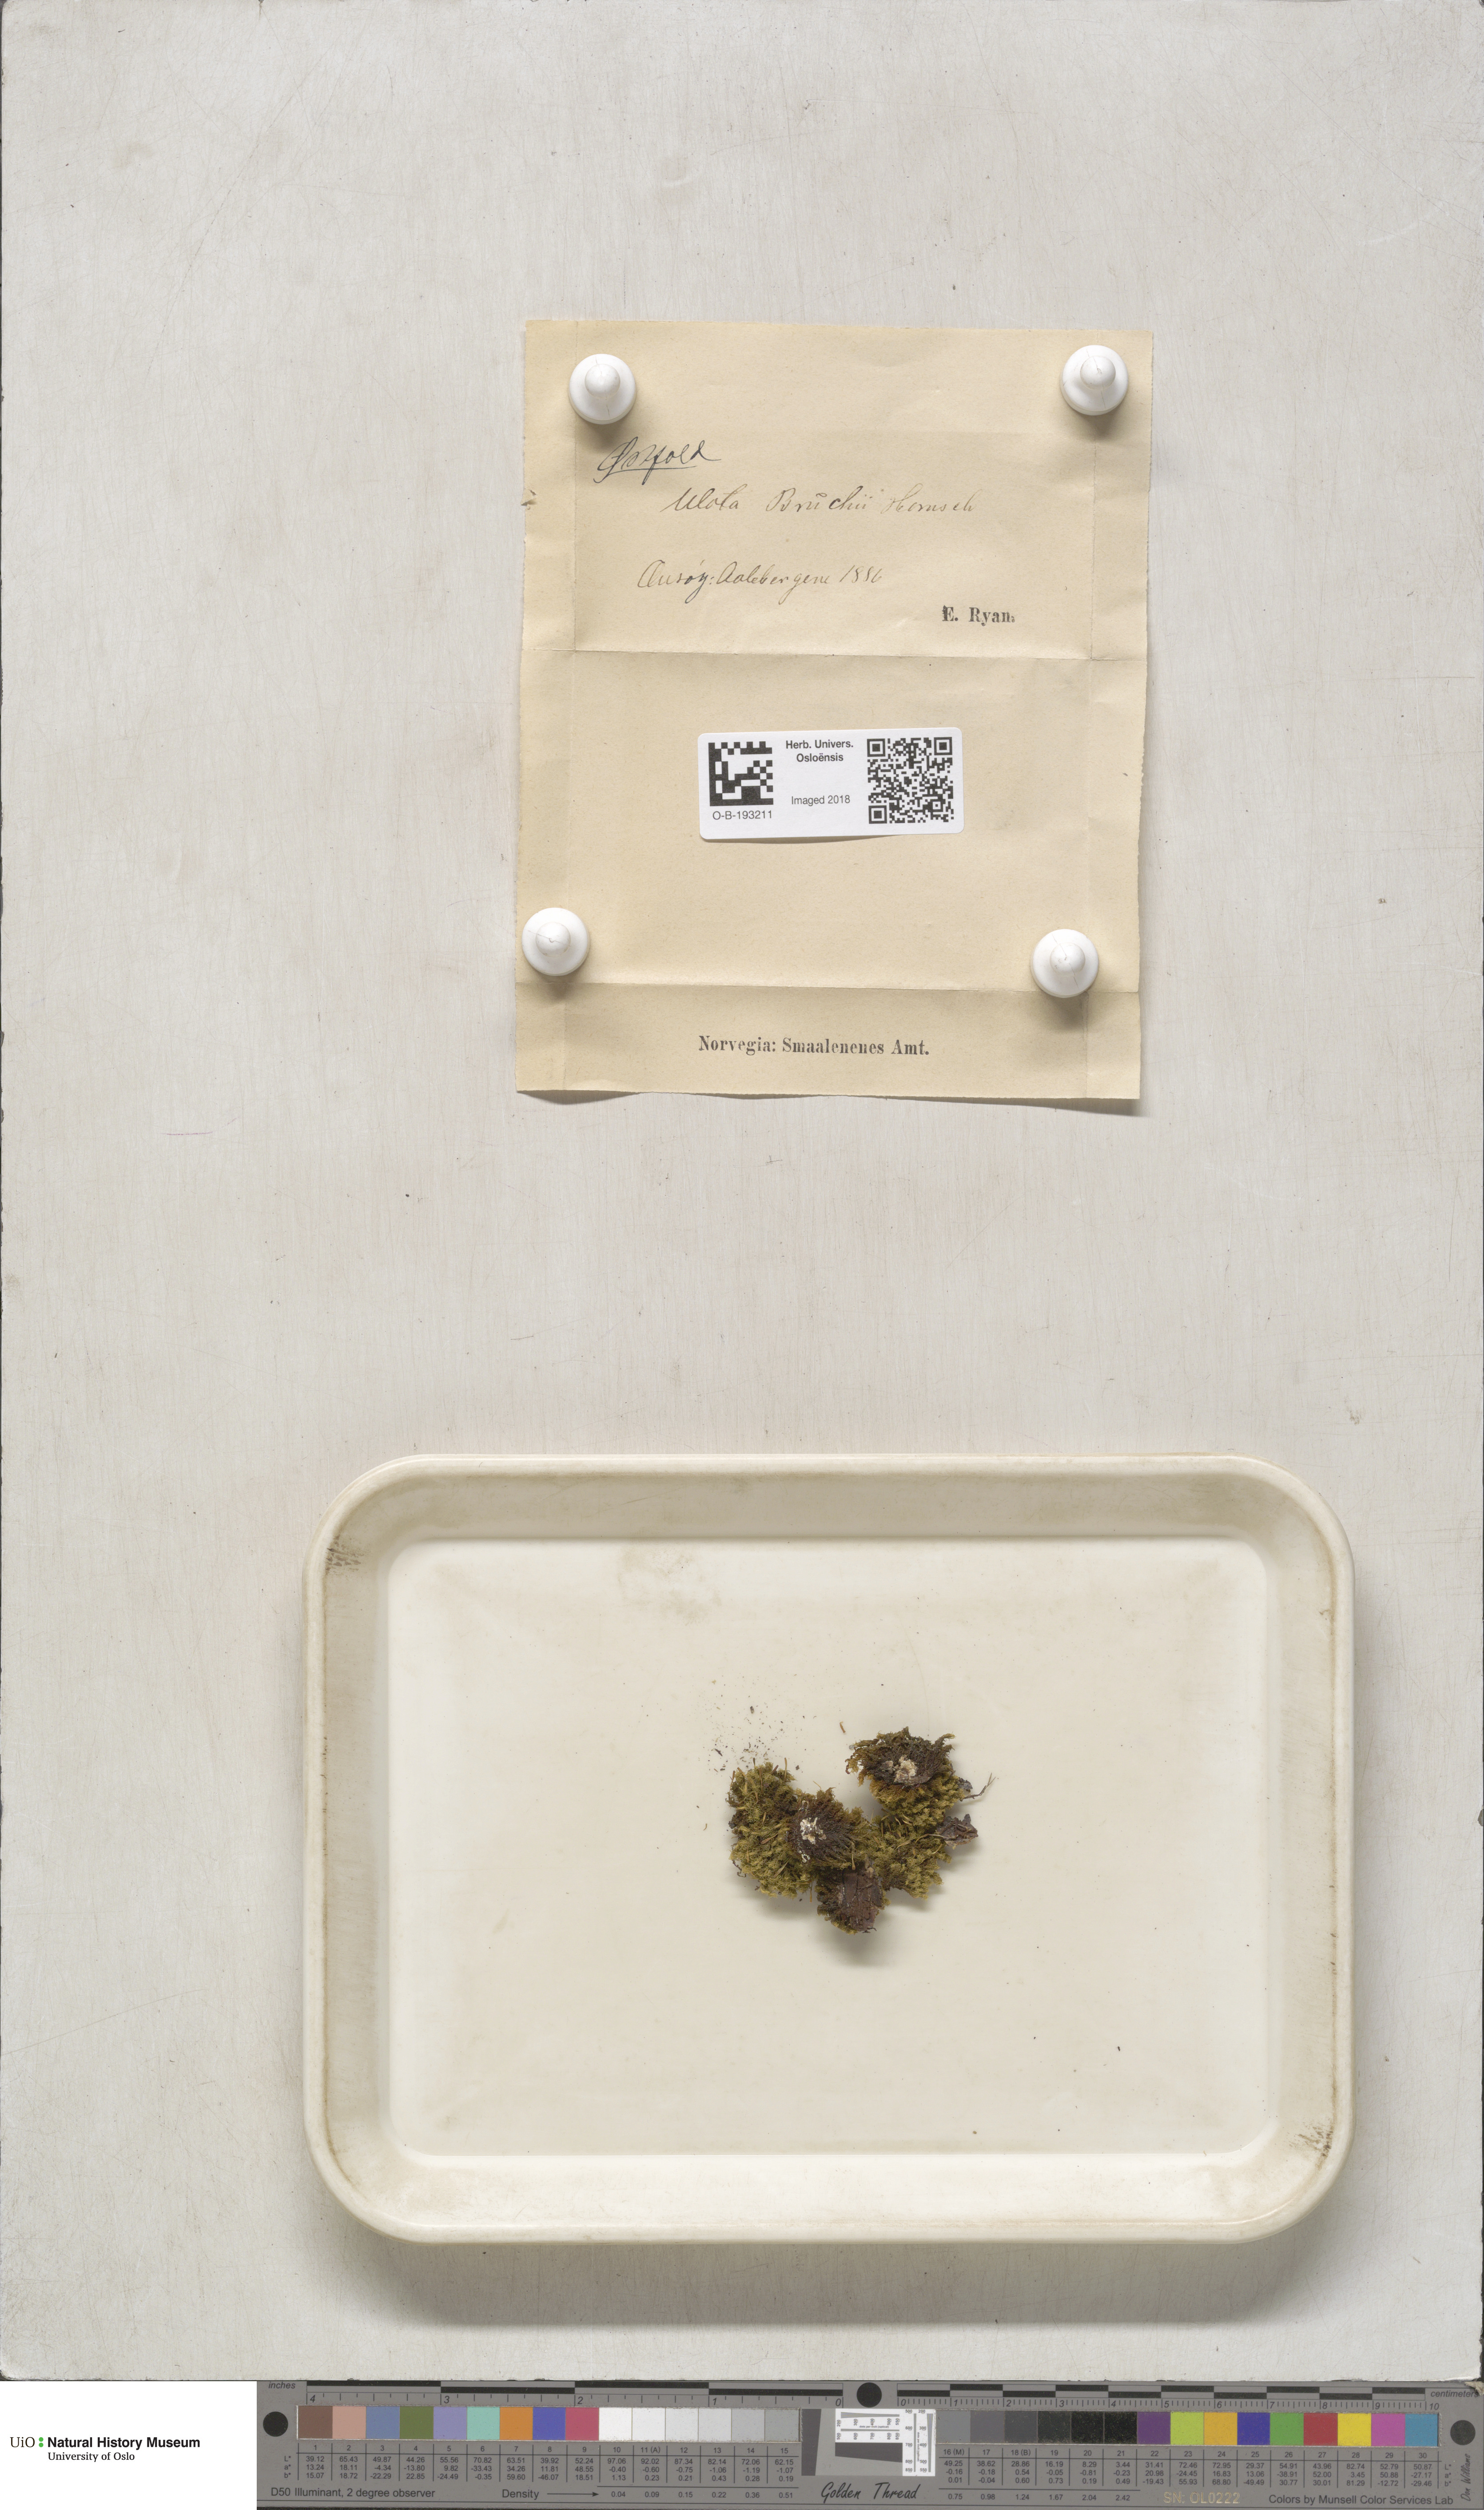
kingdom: Plantae
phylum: Bryophyta
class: Bryopsida
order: Orthotrichales
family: Orthotrichaceae
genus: Ulota
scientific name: Ulota bruchii
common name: Bruch's pincushion
